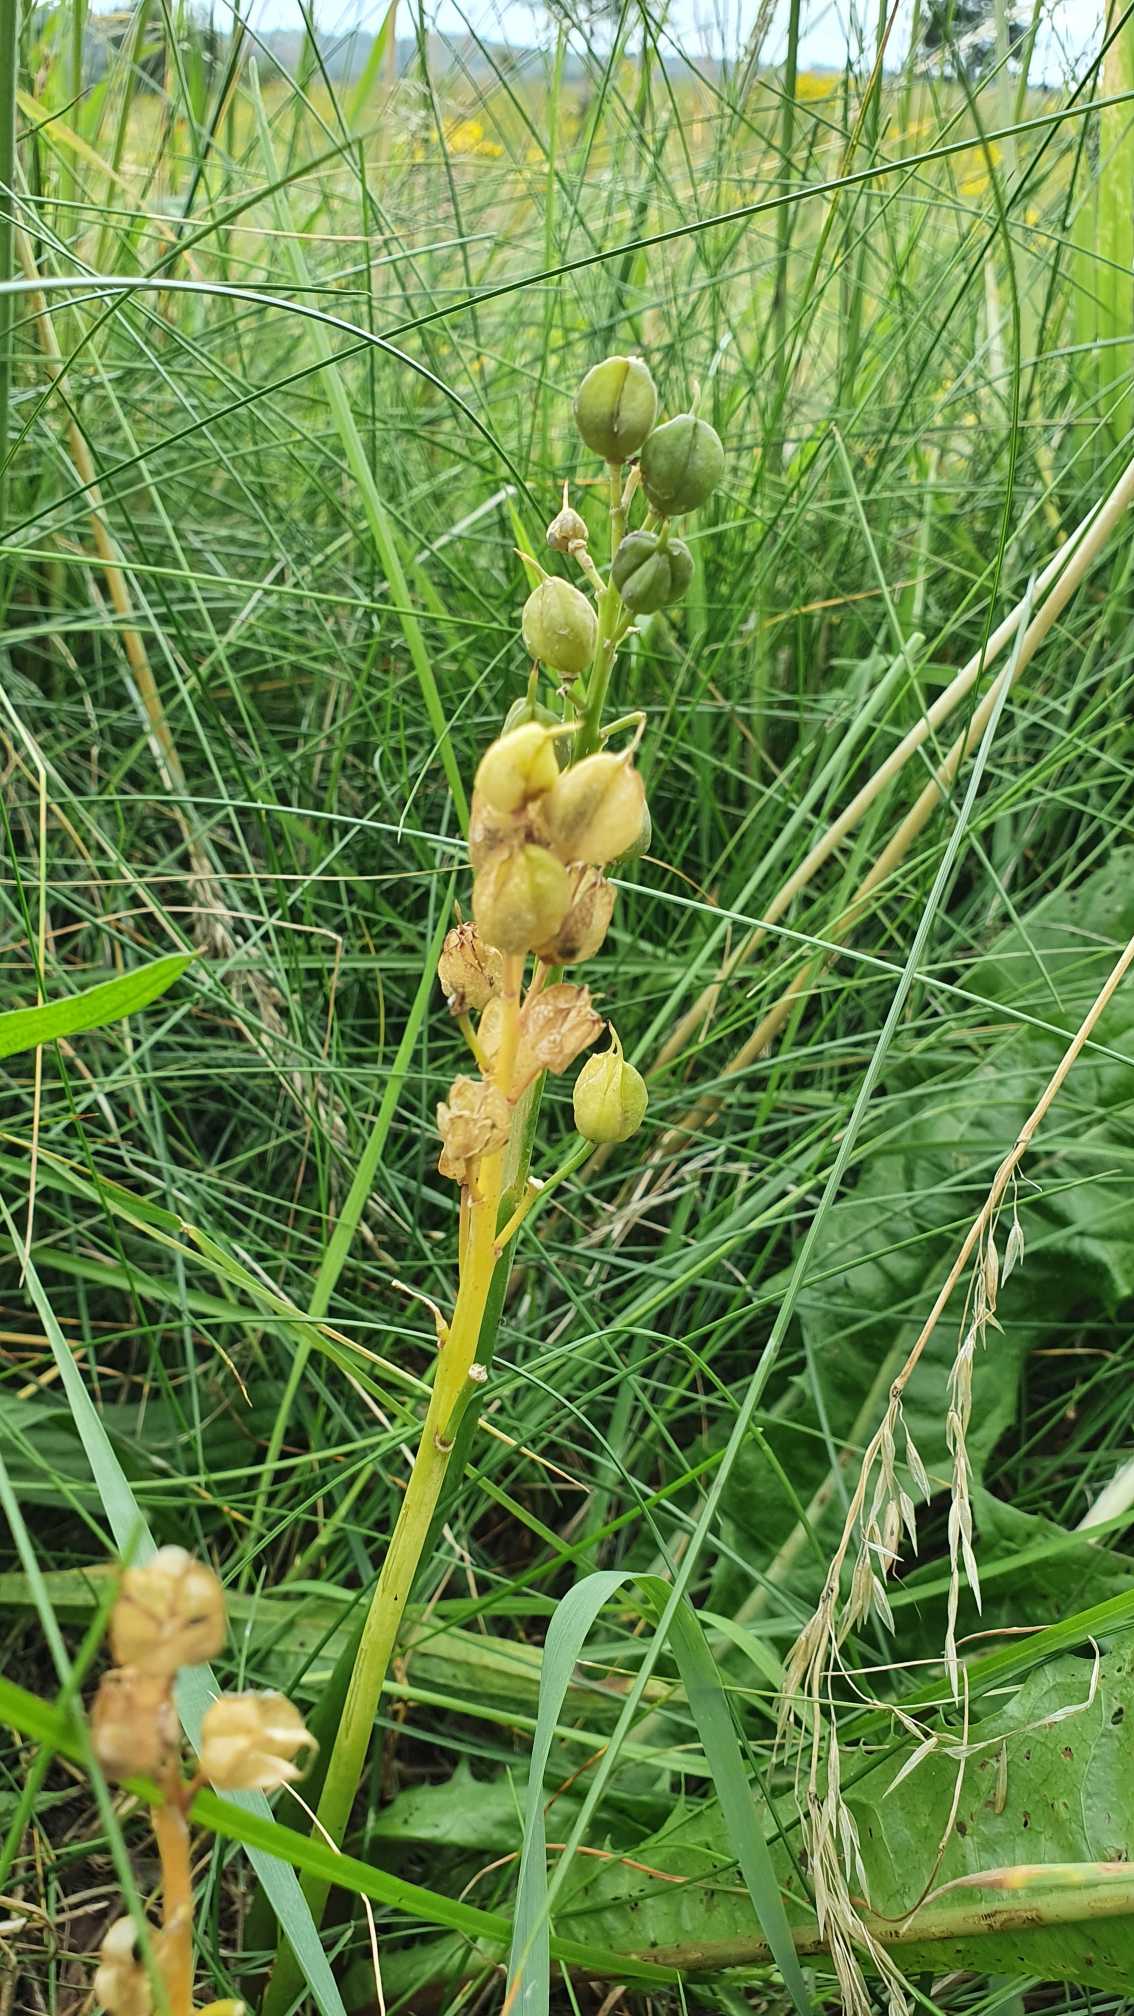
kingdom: Plantae
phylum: Tracheophyta
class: Magnoliopsida
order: Asterales
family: Menyanthaceae
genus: Menyanthes
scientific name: Menyanthes trifoliata
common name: Bukkeblad
